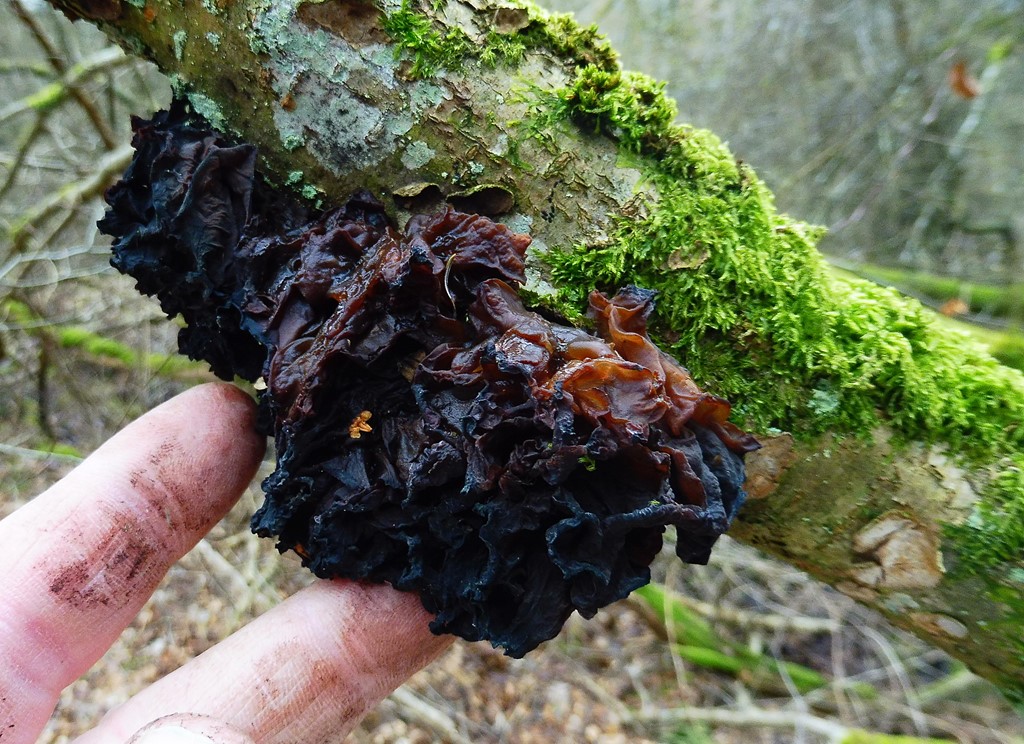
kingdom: Fungi
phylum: Basidiomycota
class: Tremellomycetes
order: Tremellales
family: Tremellaceae
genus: Phaeotremella
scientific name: Phaeotremella frondosa
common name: kæmpe-bævresvamp
